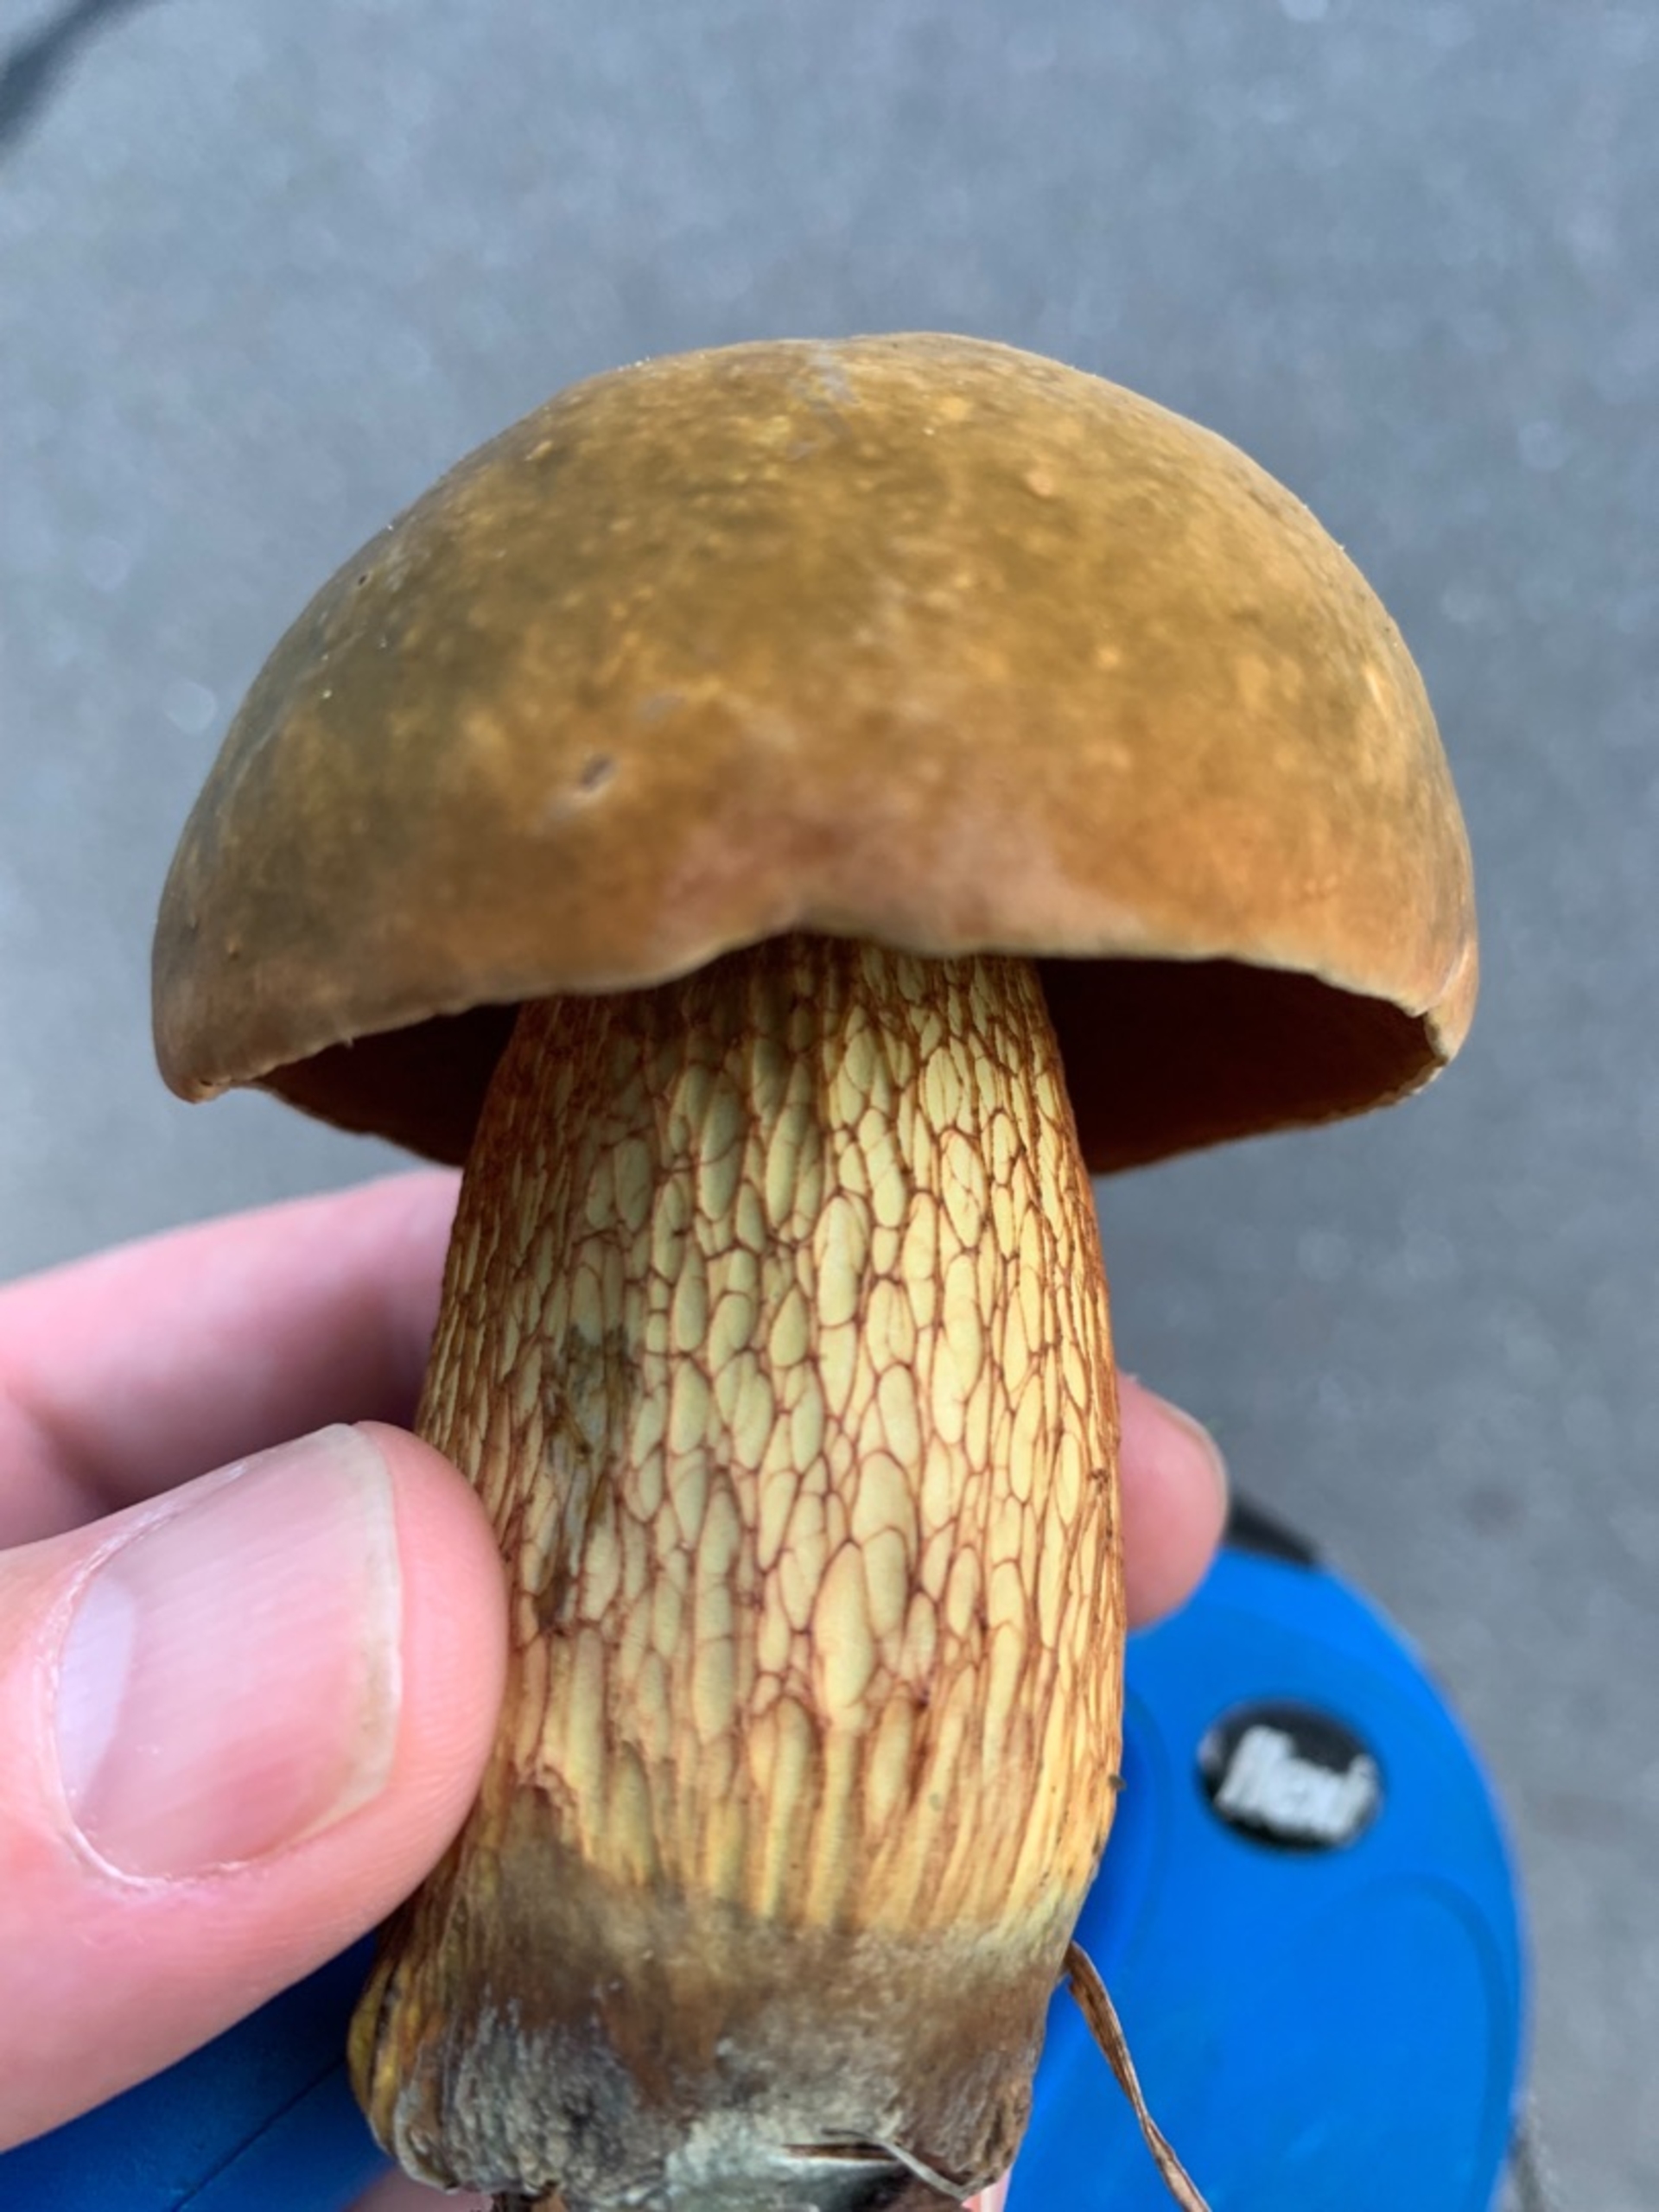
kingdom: Fungi
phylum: Basidiomycota
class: Agaricomycetes
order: Boletales
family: Boletaceae
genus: Suillellus
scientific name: Suillellus luridus
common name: Netstokket indigorørhat
